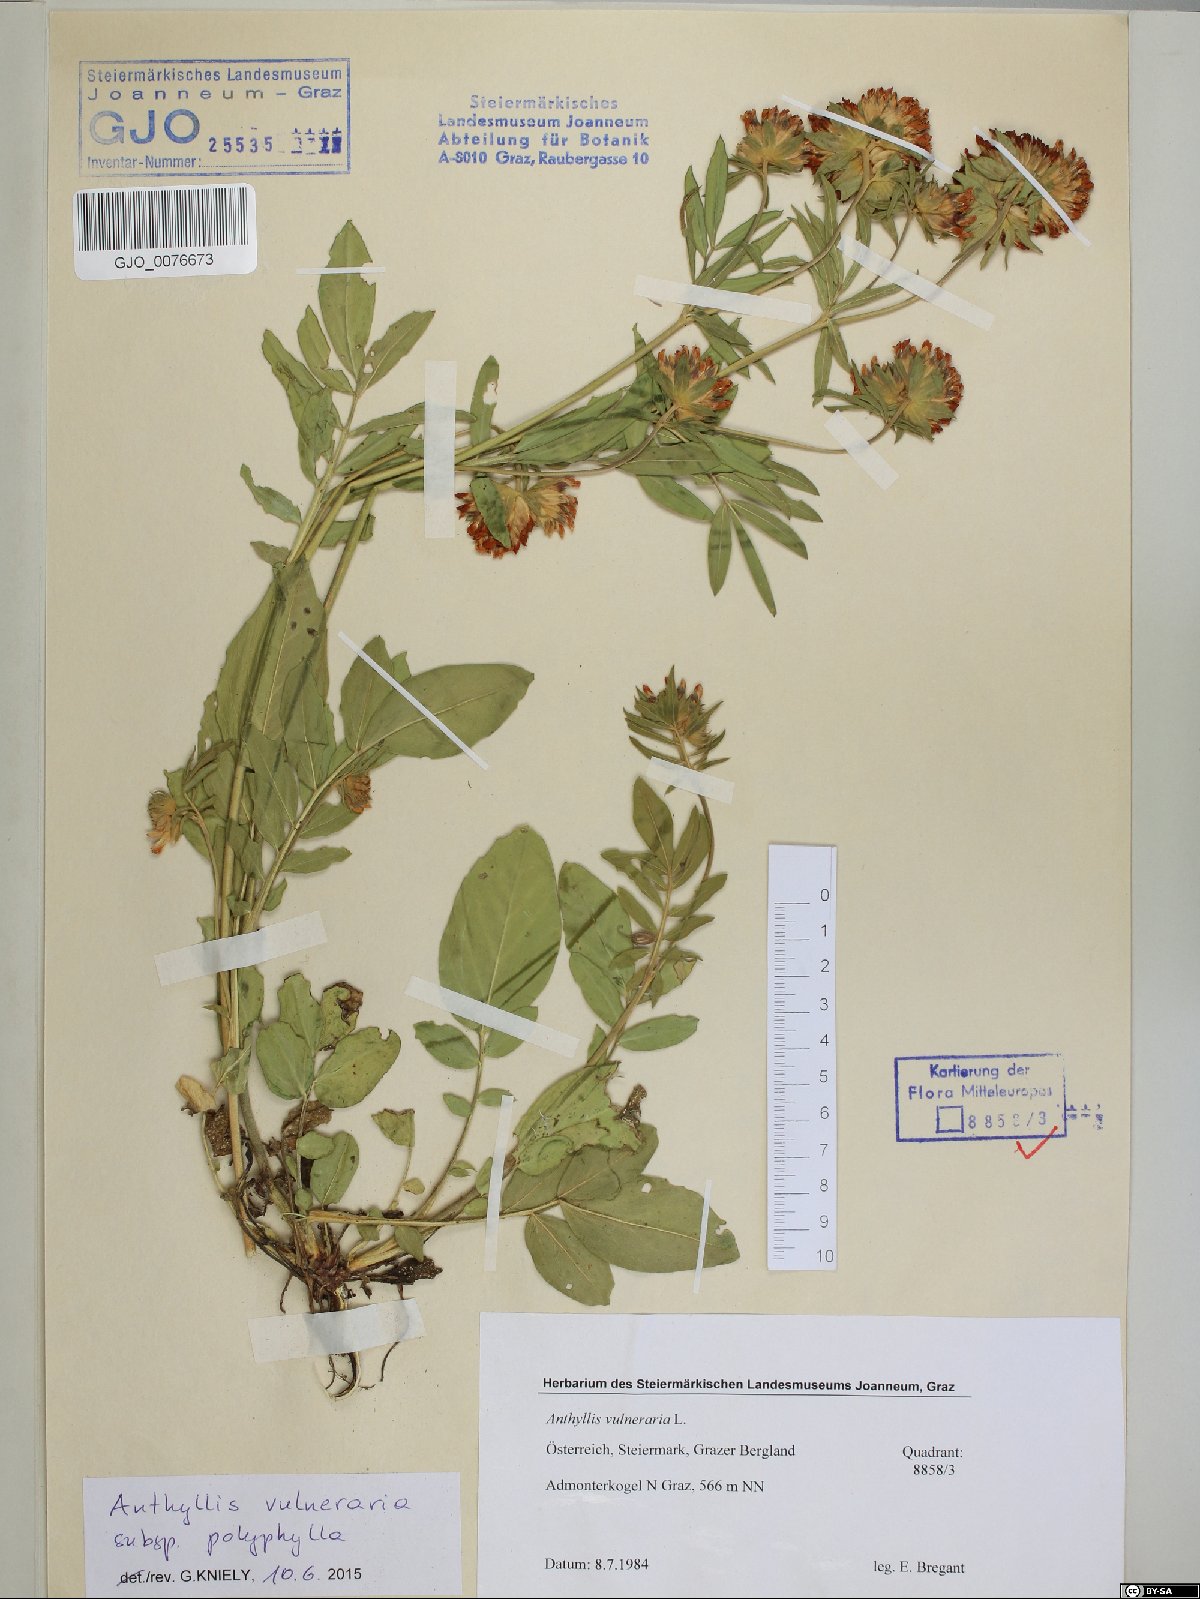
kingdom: Plantae
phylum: Tracheophyta
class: Magnoliopsida
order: Fabales
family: Fabaceae
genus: Anthyllis
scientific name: Anthyllis vulneraria
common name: Kidney vetch
